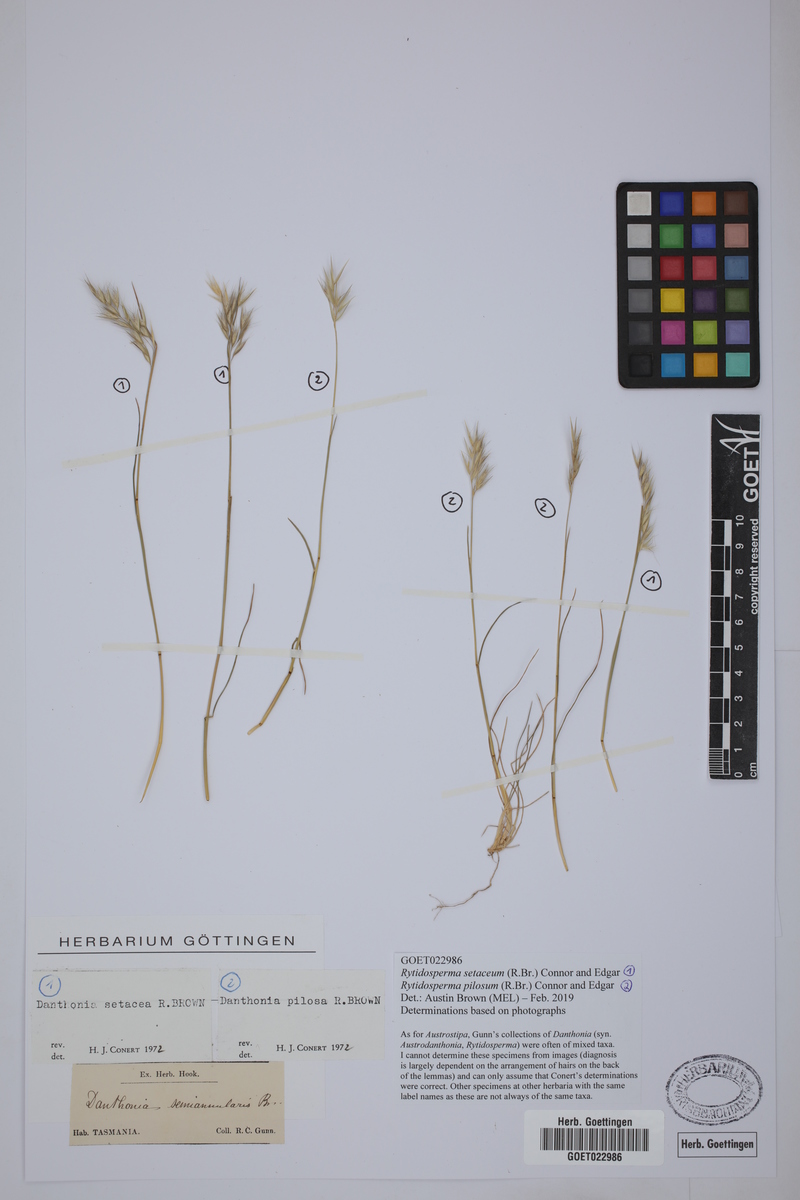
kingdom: Plantae
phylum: Tracheophyta
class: Liliopsida
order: Poales
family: Poaceae
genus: Rytidosperma
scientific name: Rytidosperma pilosum
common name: Hairy wallaby grass
